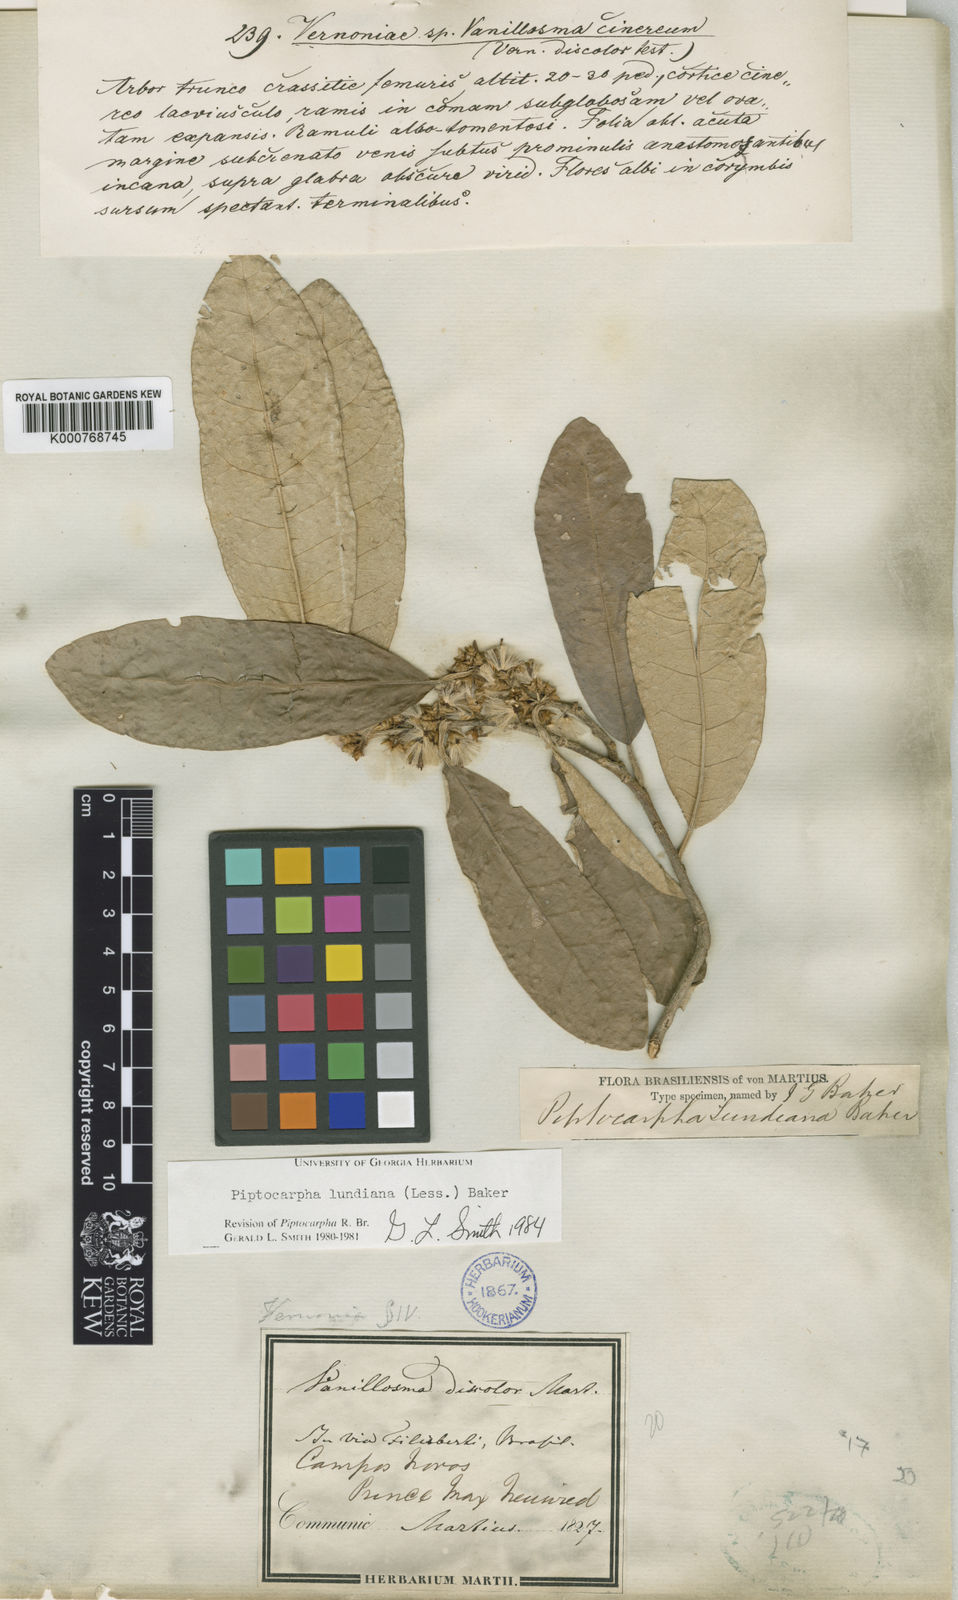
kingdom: Plantae
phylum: Tracheophyta
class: Magnoliopsida
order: Asterales
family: Asteraceae
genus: Piptocarpha
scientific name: Piptocarpha lundiana
